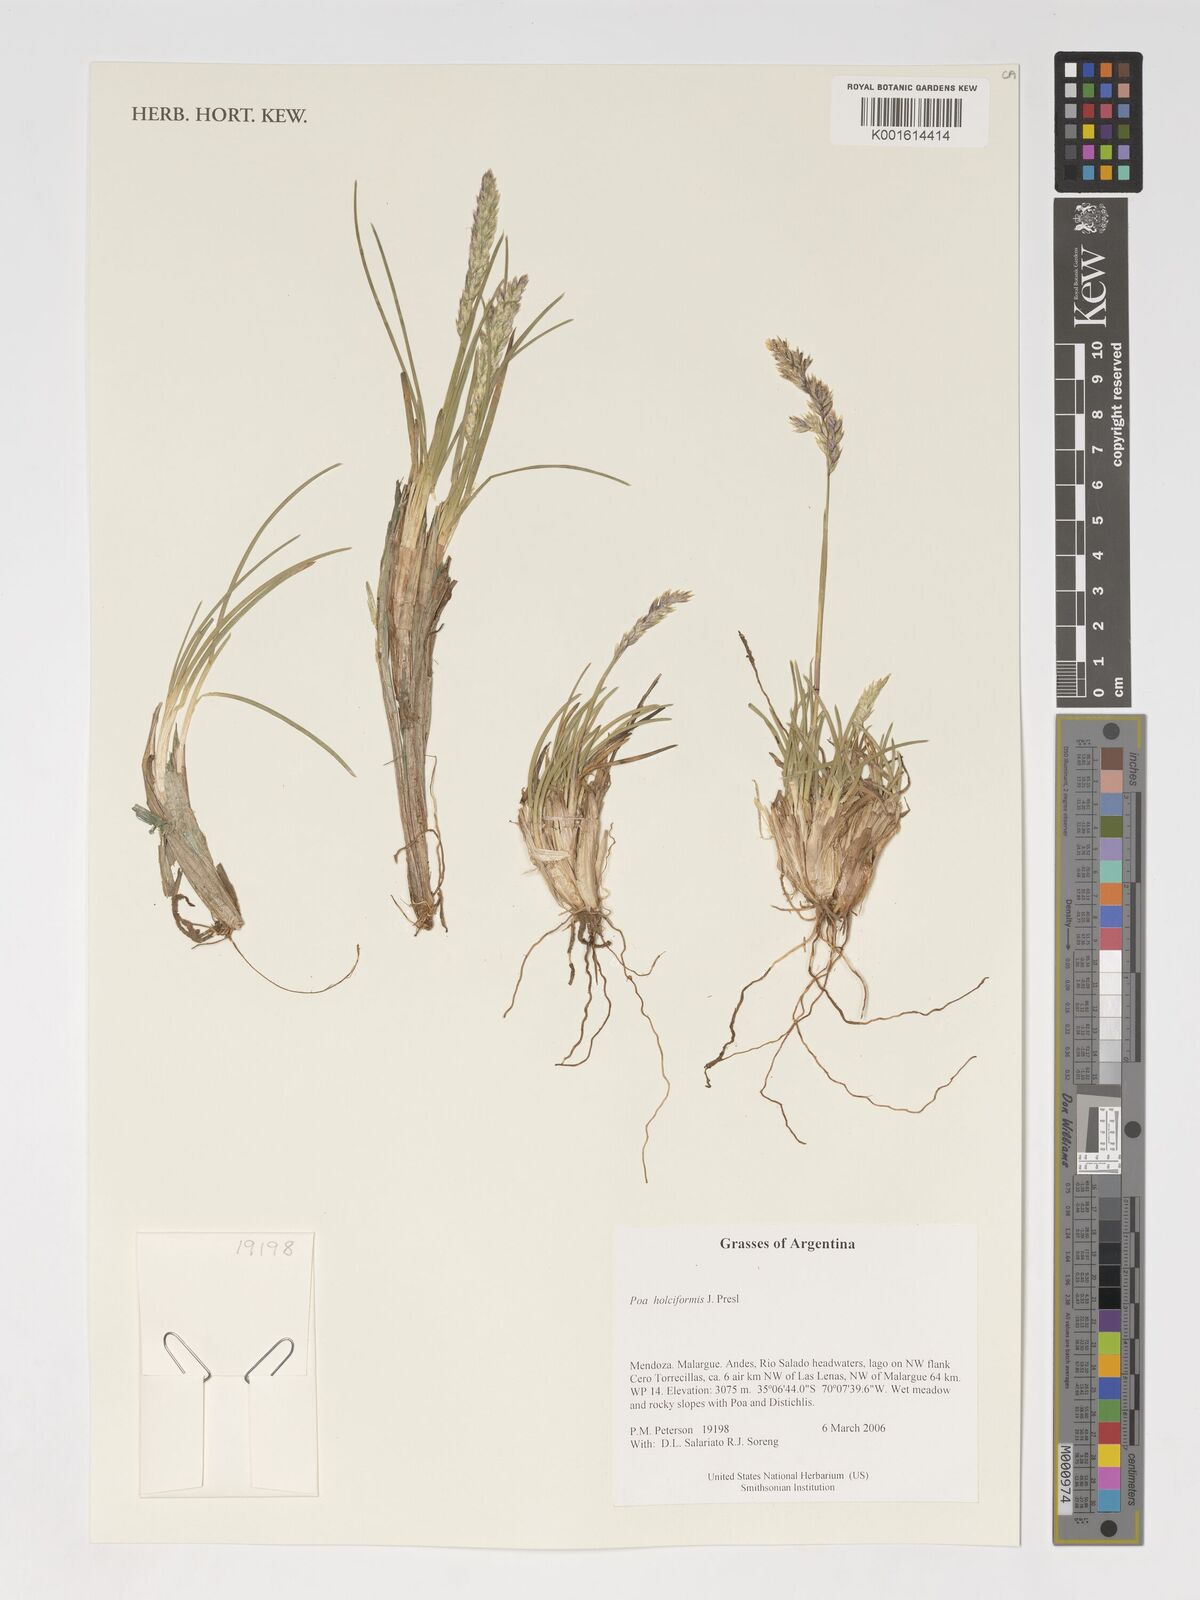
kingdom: Plantae
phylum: Tracheophyta
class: Liliopsida
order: Poales
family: Poaceae
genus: Poa
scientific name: Poa holciformis
